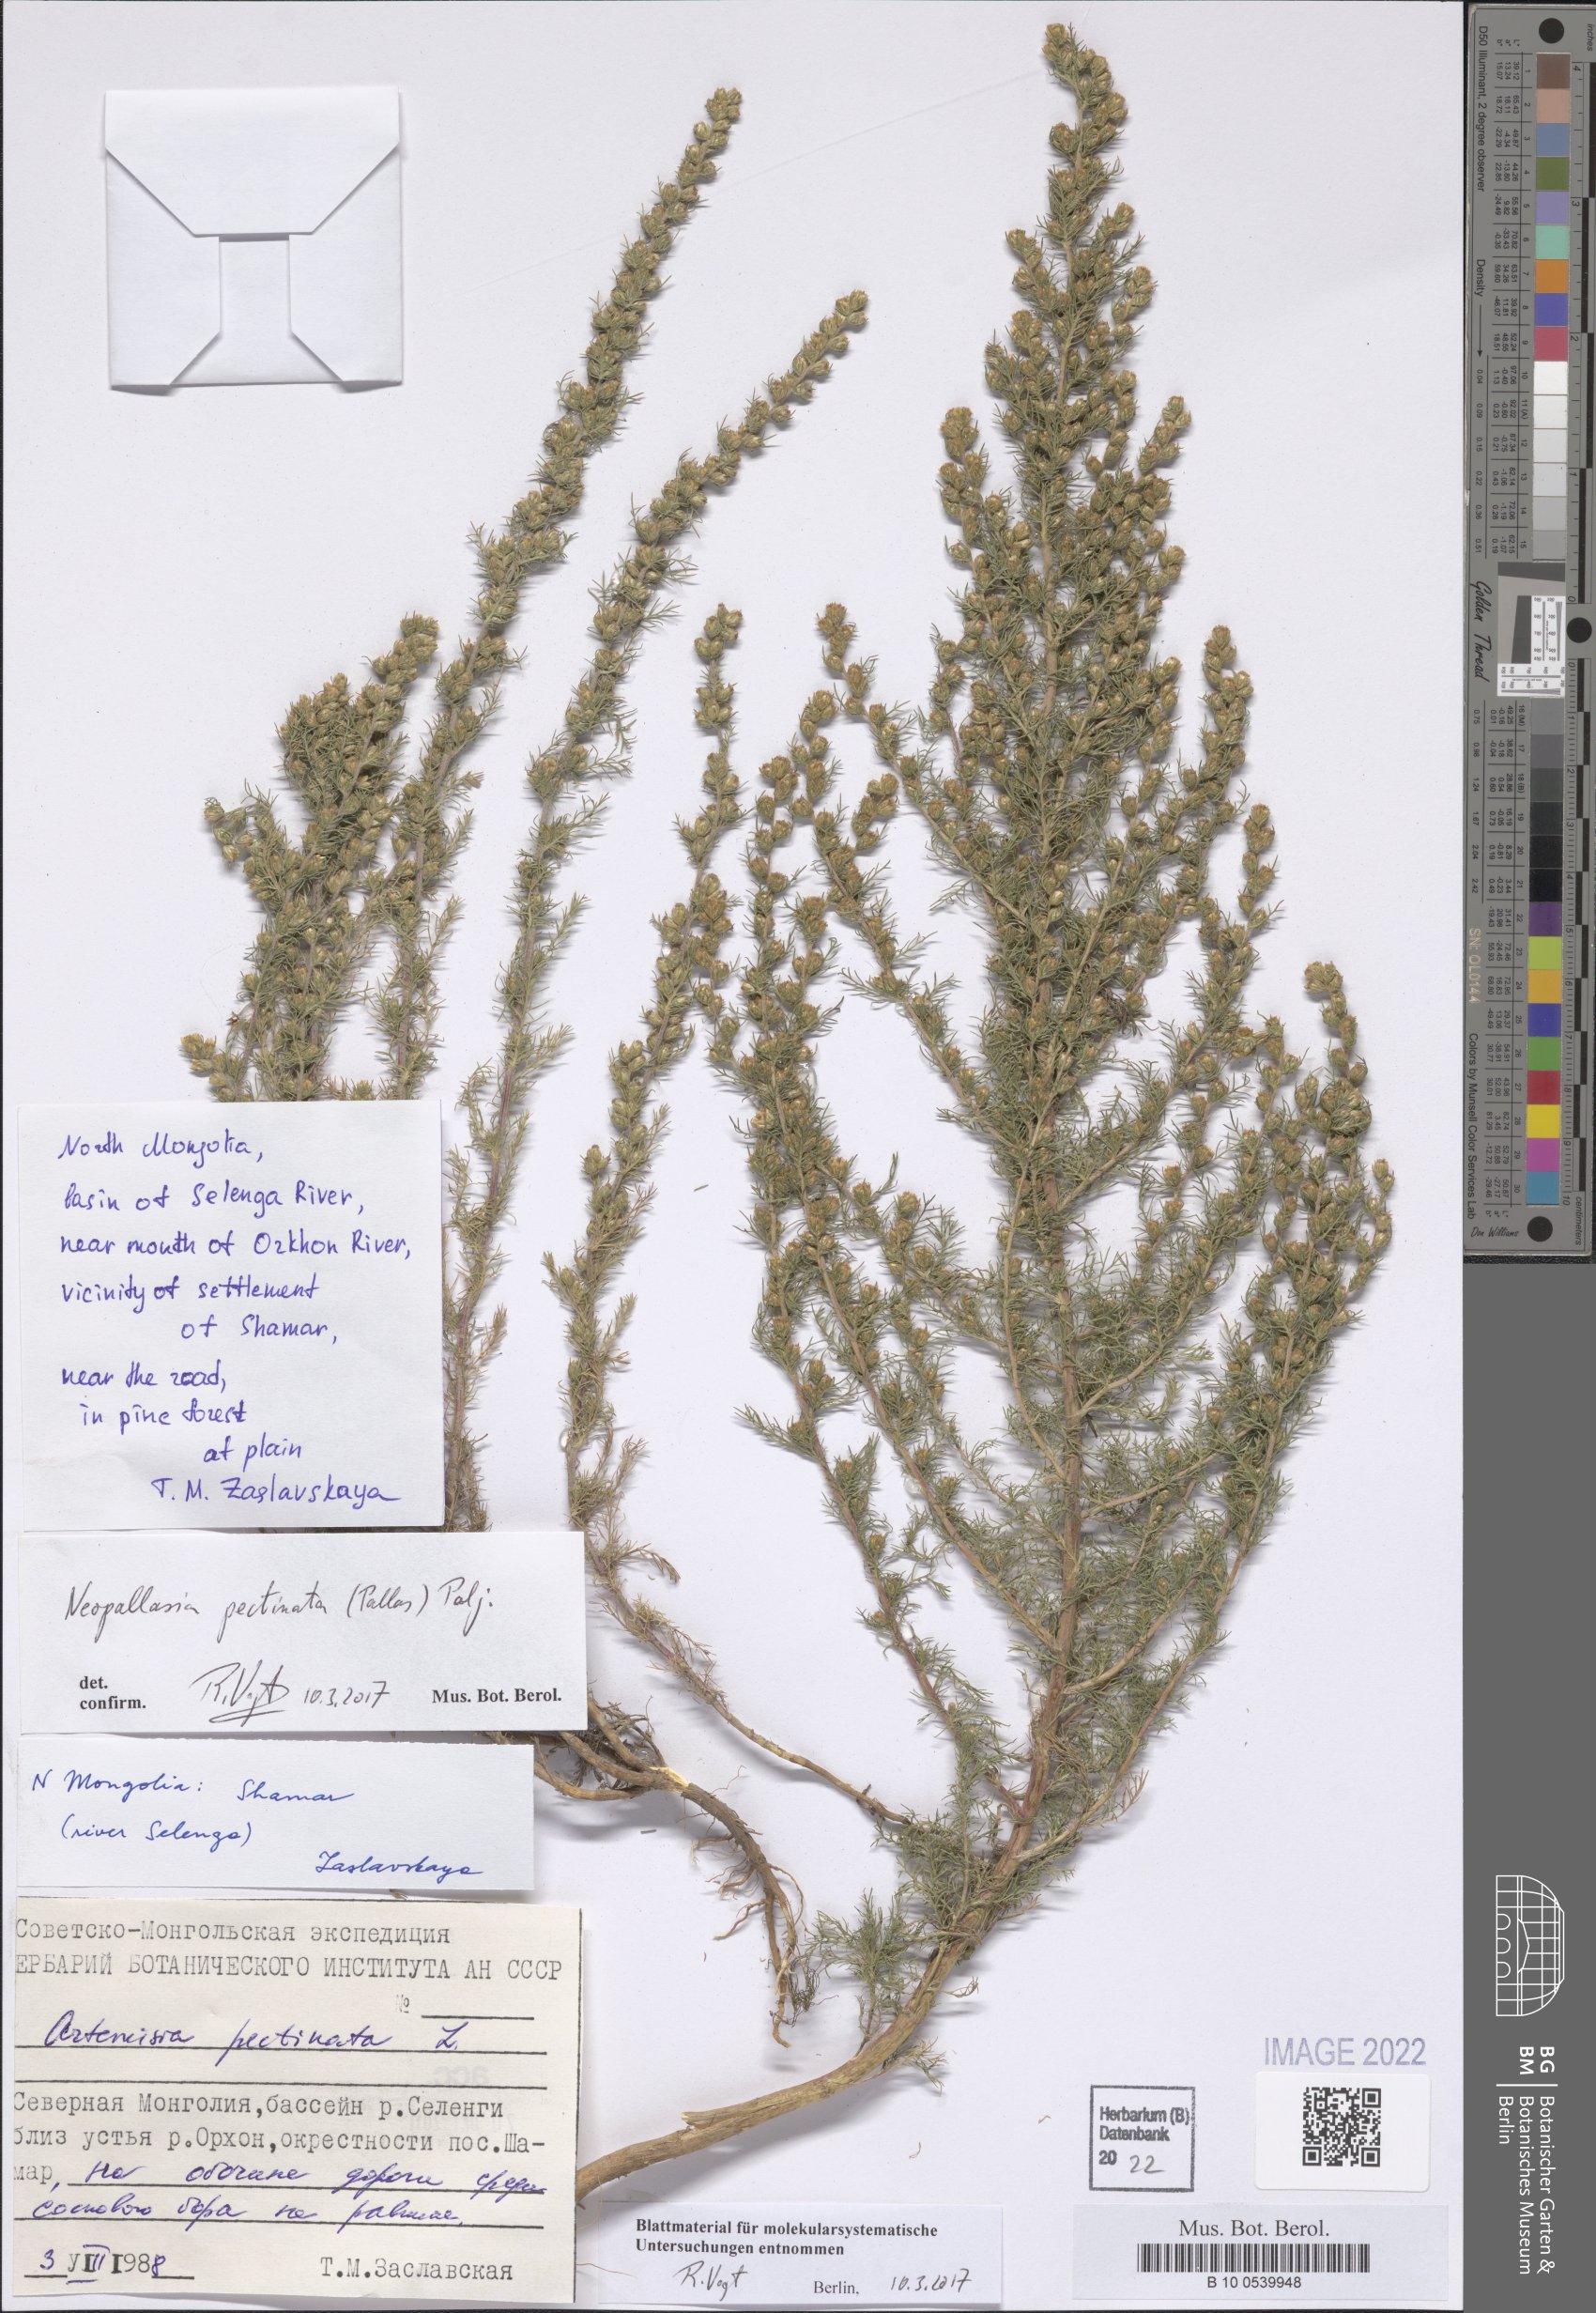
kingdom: Plantae
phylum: Tracheophyta
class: Magnoliopsida
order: Asterales
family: Asteraceae
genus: Neopallasia
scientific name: Neopallasia pectinata
